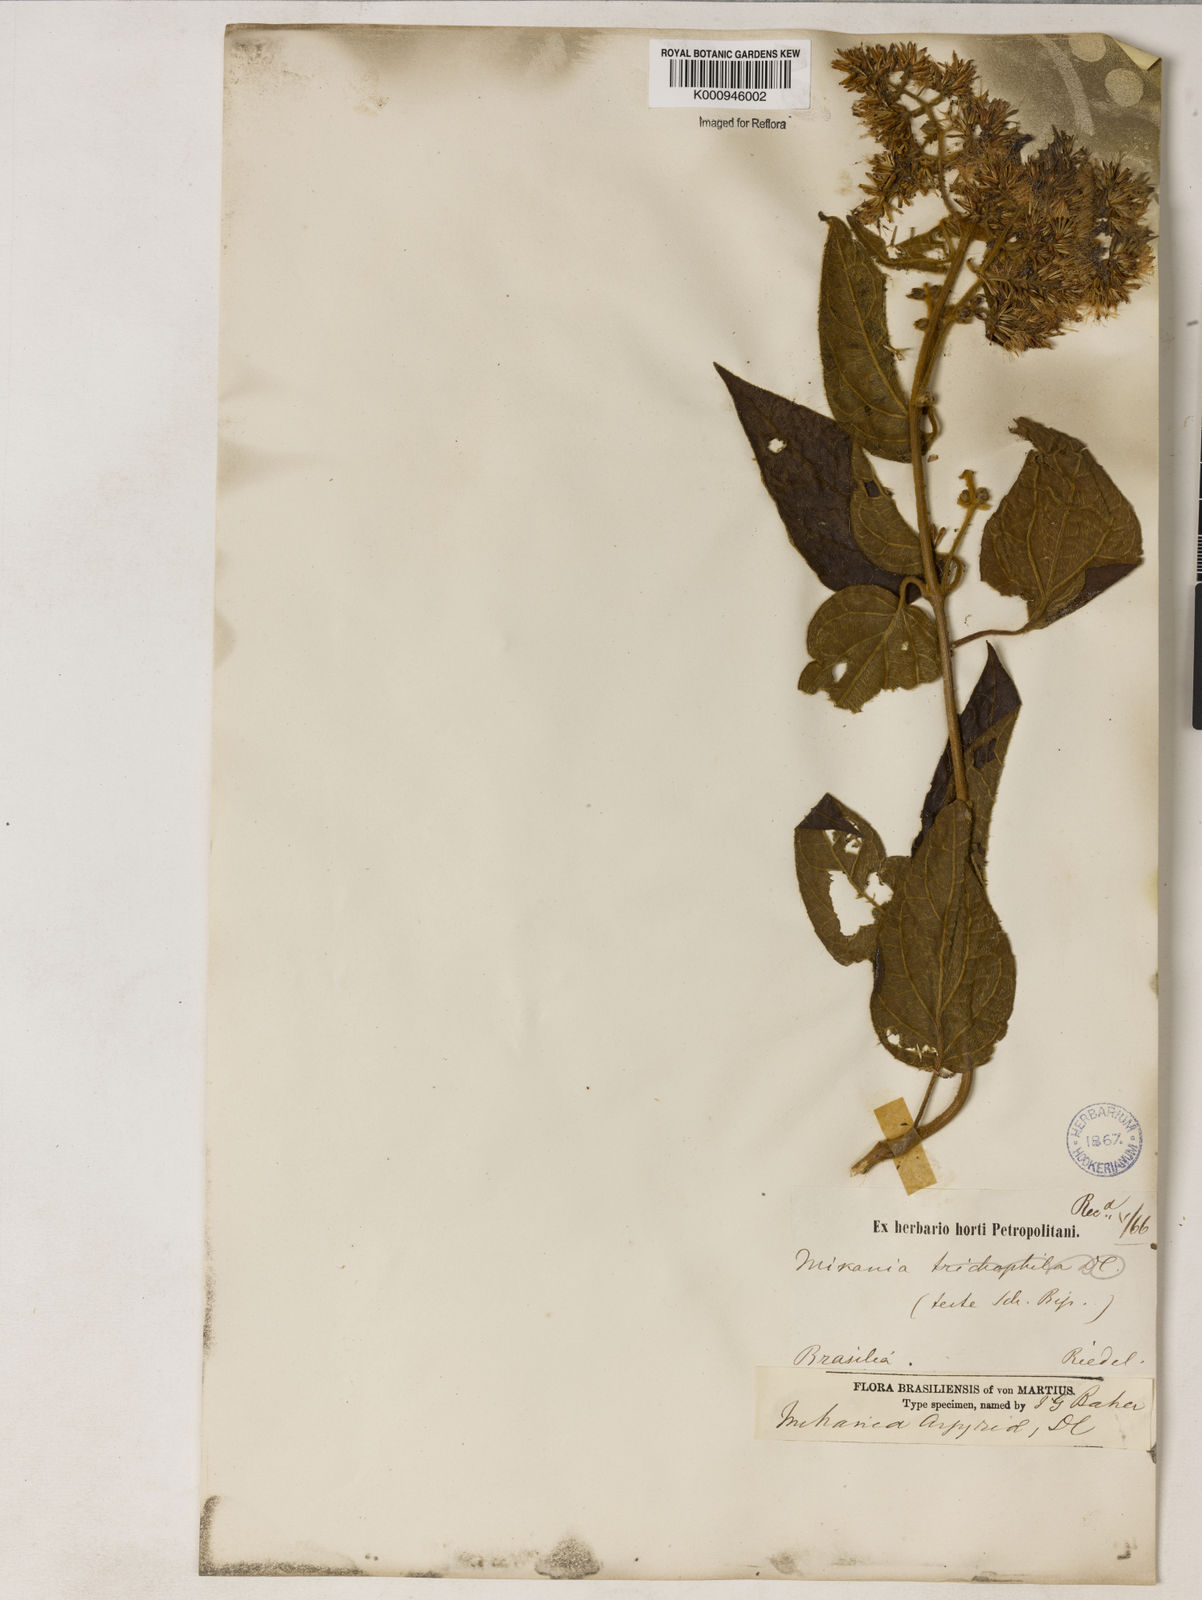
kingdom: Plantae
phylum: Tracheophyta
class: Magnoliopsida
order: Asterales
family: Asteraceae
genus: Mikania
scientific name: Mikania
